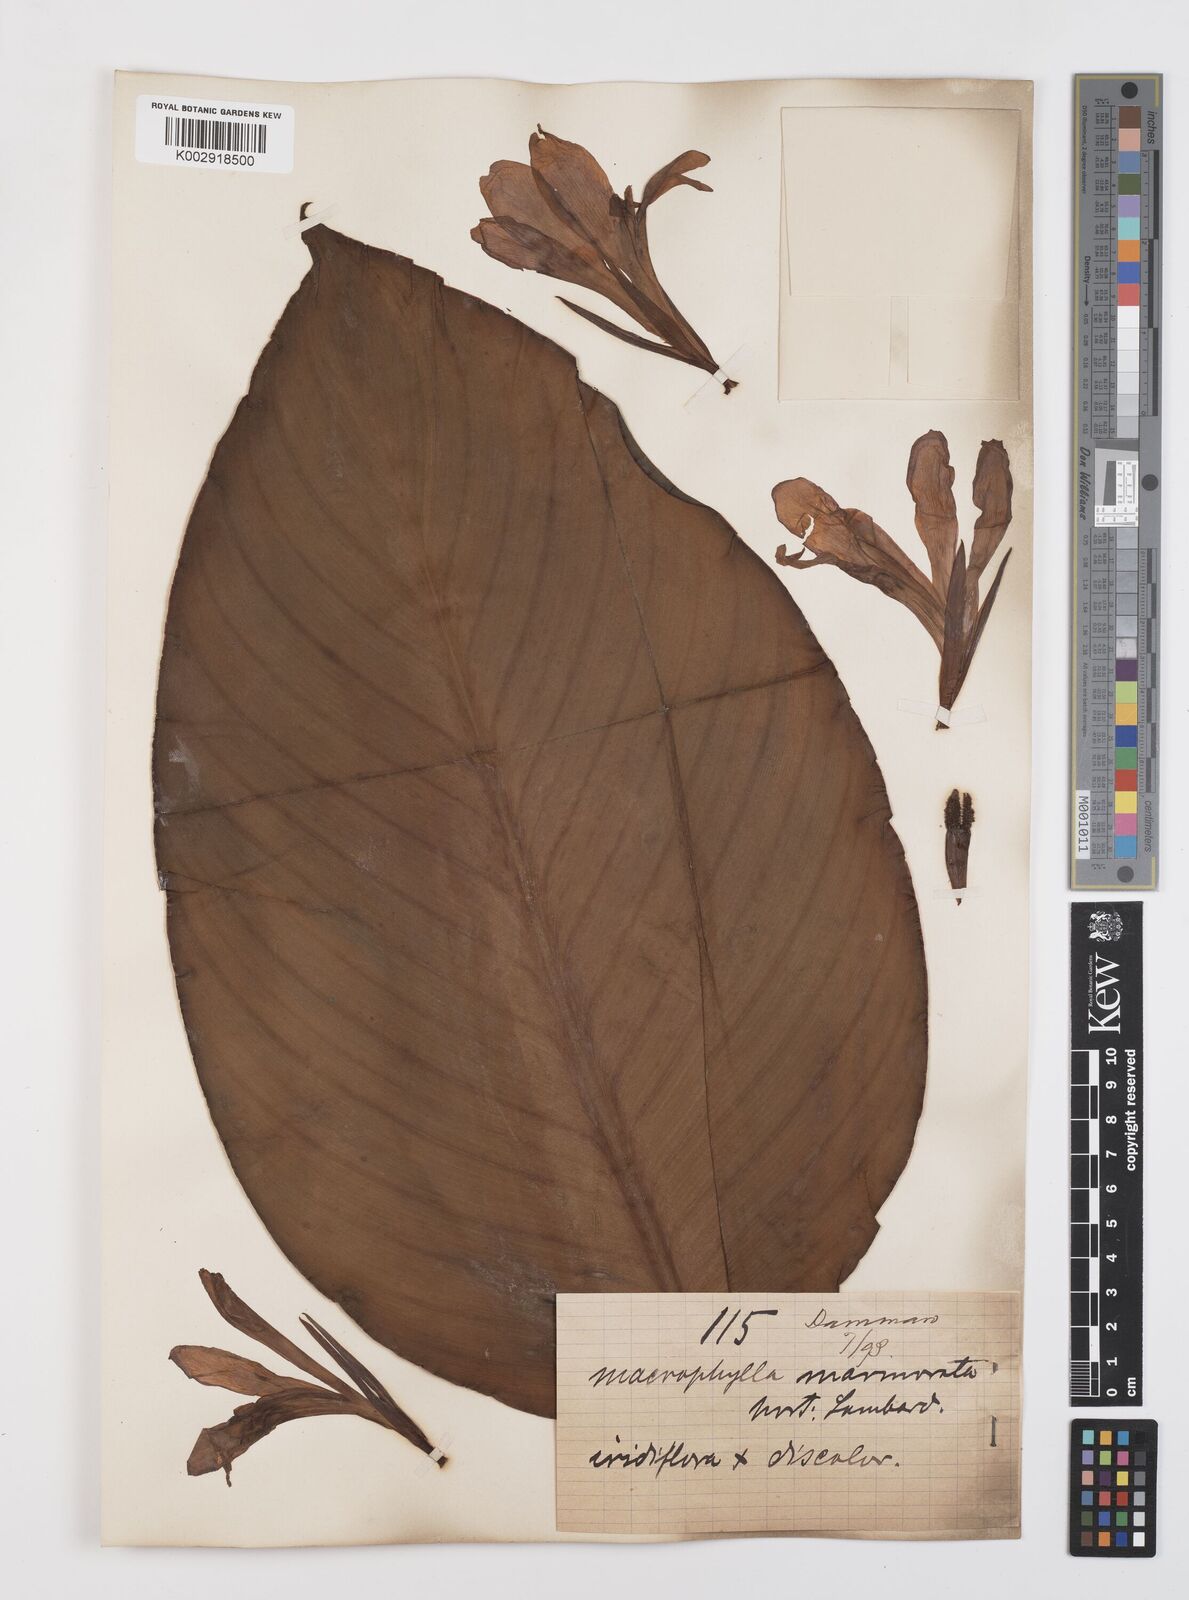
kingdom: Plantae
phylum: Tracheophyta
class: Liliopsida
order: Zingiberales
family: Cannaceae
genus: Canna
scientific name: Canna tuerckheimii
